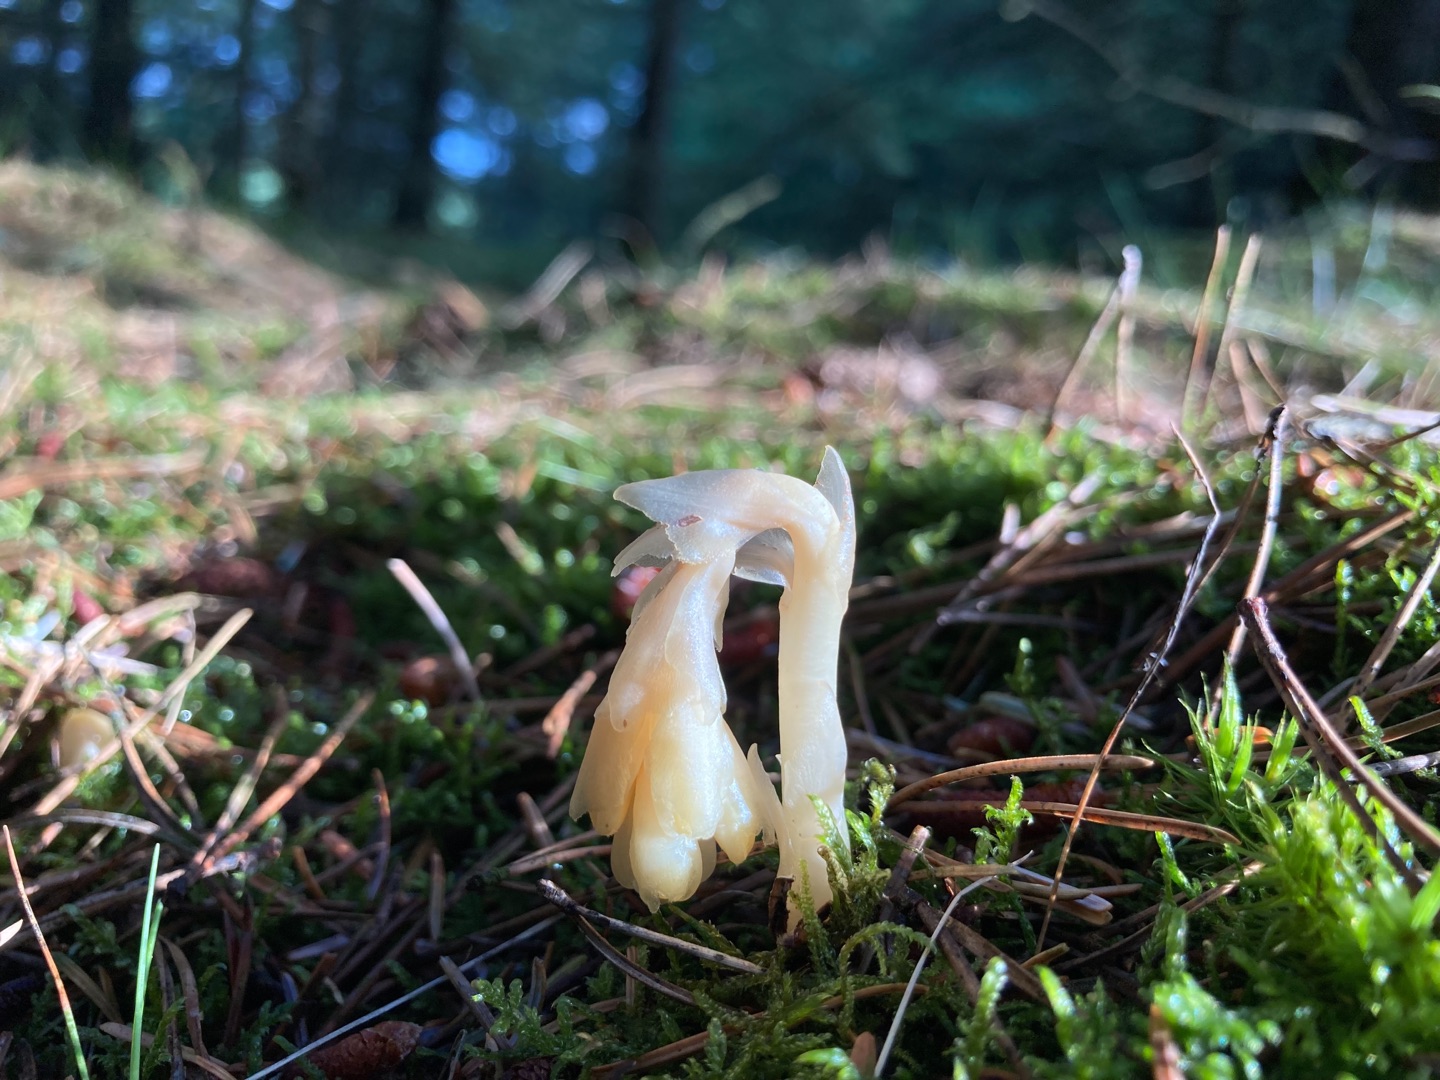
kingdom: Plantae
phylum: Tracheophyta
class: Magnoliopsida
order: Ericales
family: Ericaceae
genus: Hypopitys
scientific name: Hypopitys monotropa
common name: Håret snylterod
